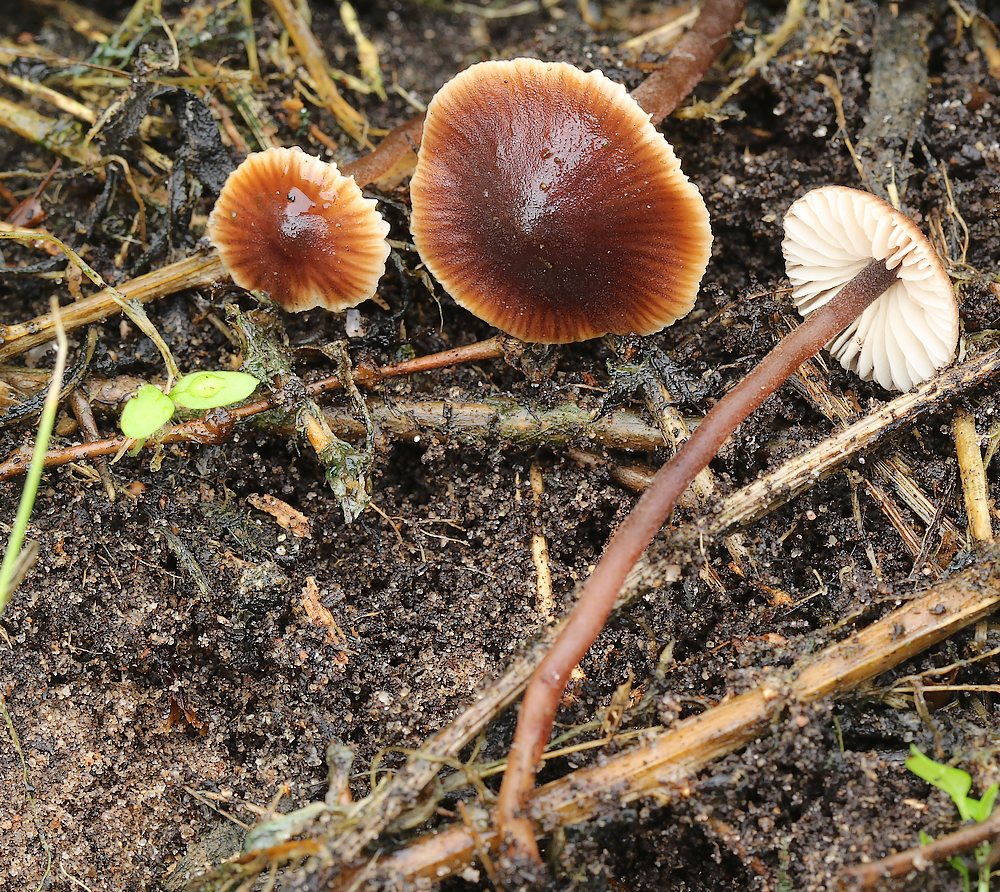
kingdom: Fungi
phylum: Basidiomycota
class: Agaricomycetes
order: Agaricales
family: Macrocystidiaceae
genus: Macrocystidia
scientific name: Macrocystidia
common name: agurkehat
